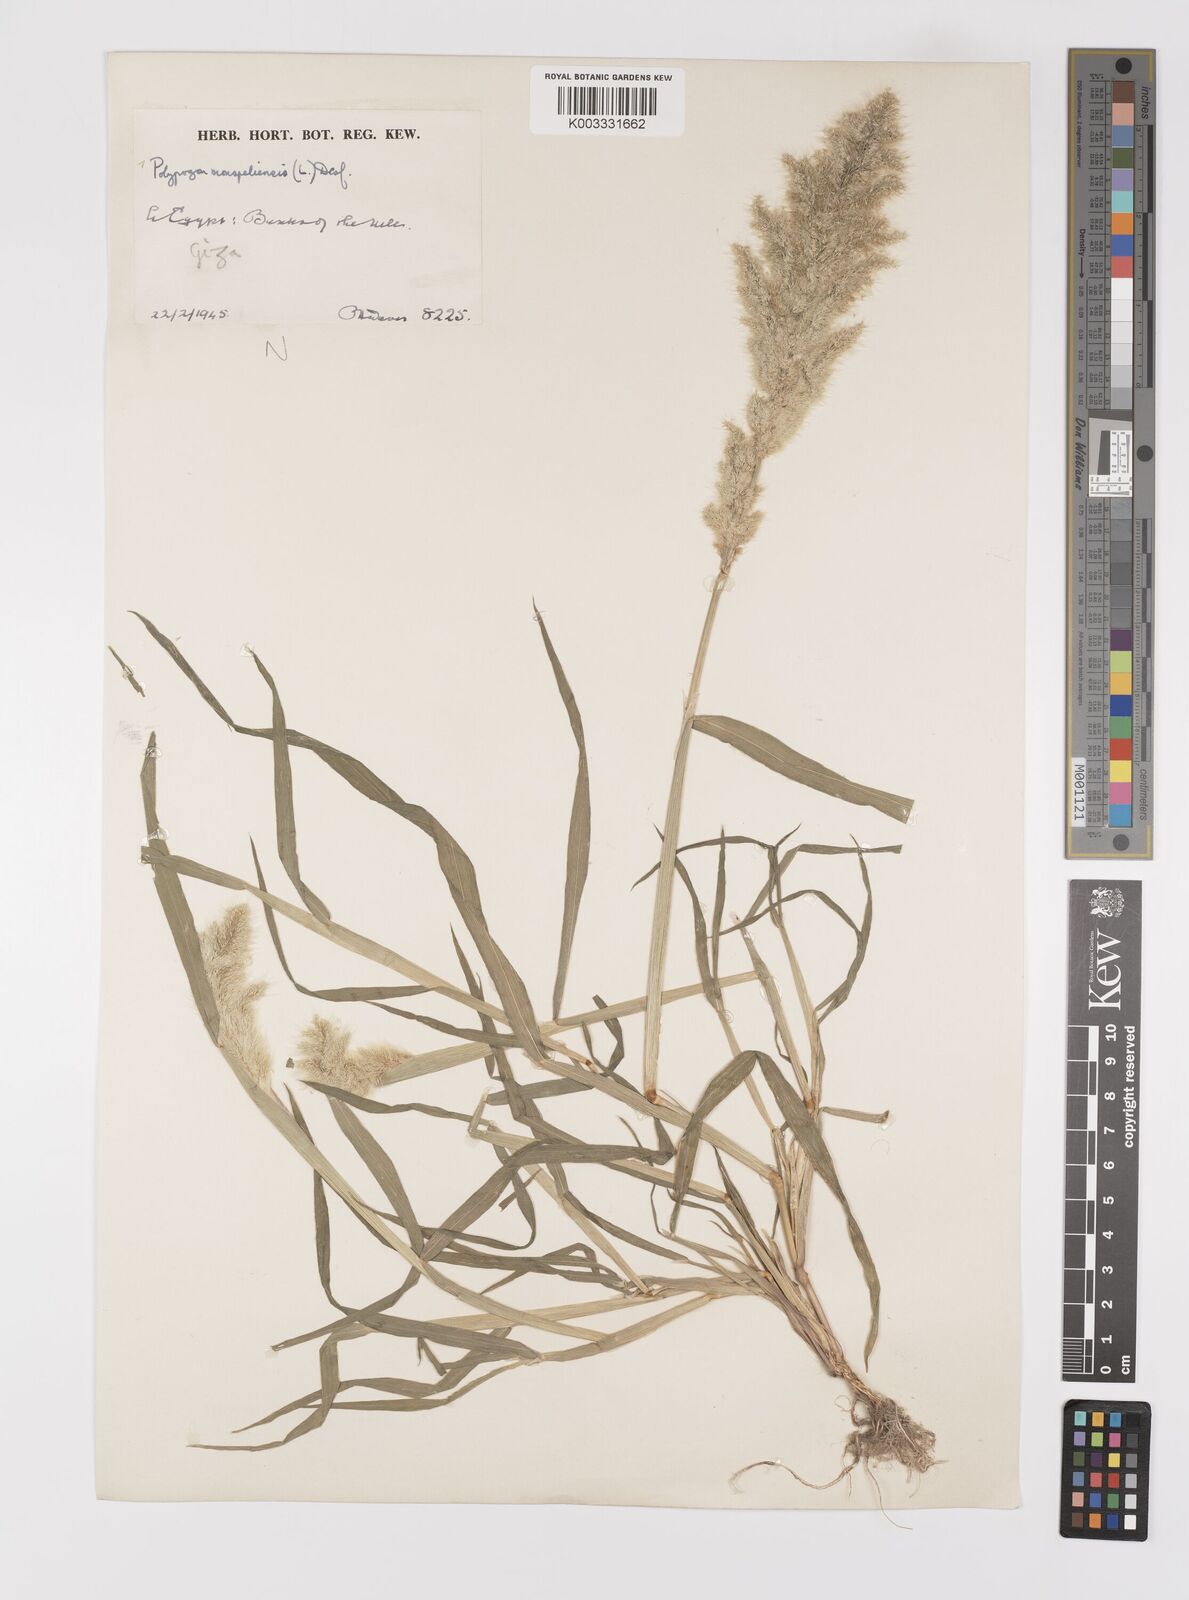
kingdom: Plantae
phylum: Tracheophyta
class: Liliopsida
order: Poales
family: Poaceae
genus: Polypogon
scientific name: Polypogon monspeliensis
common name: Annual rabbitsfoot grass
